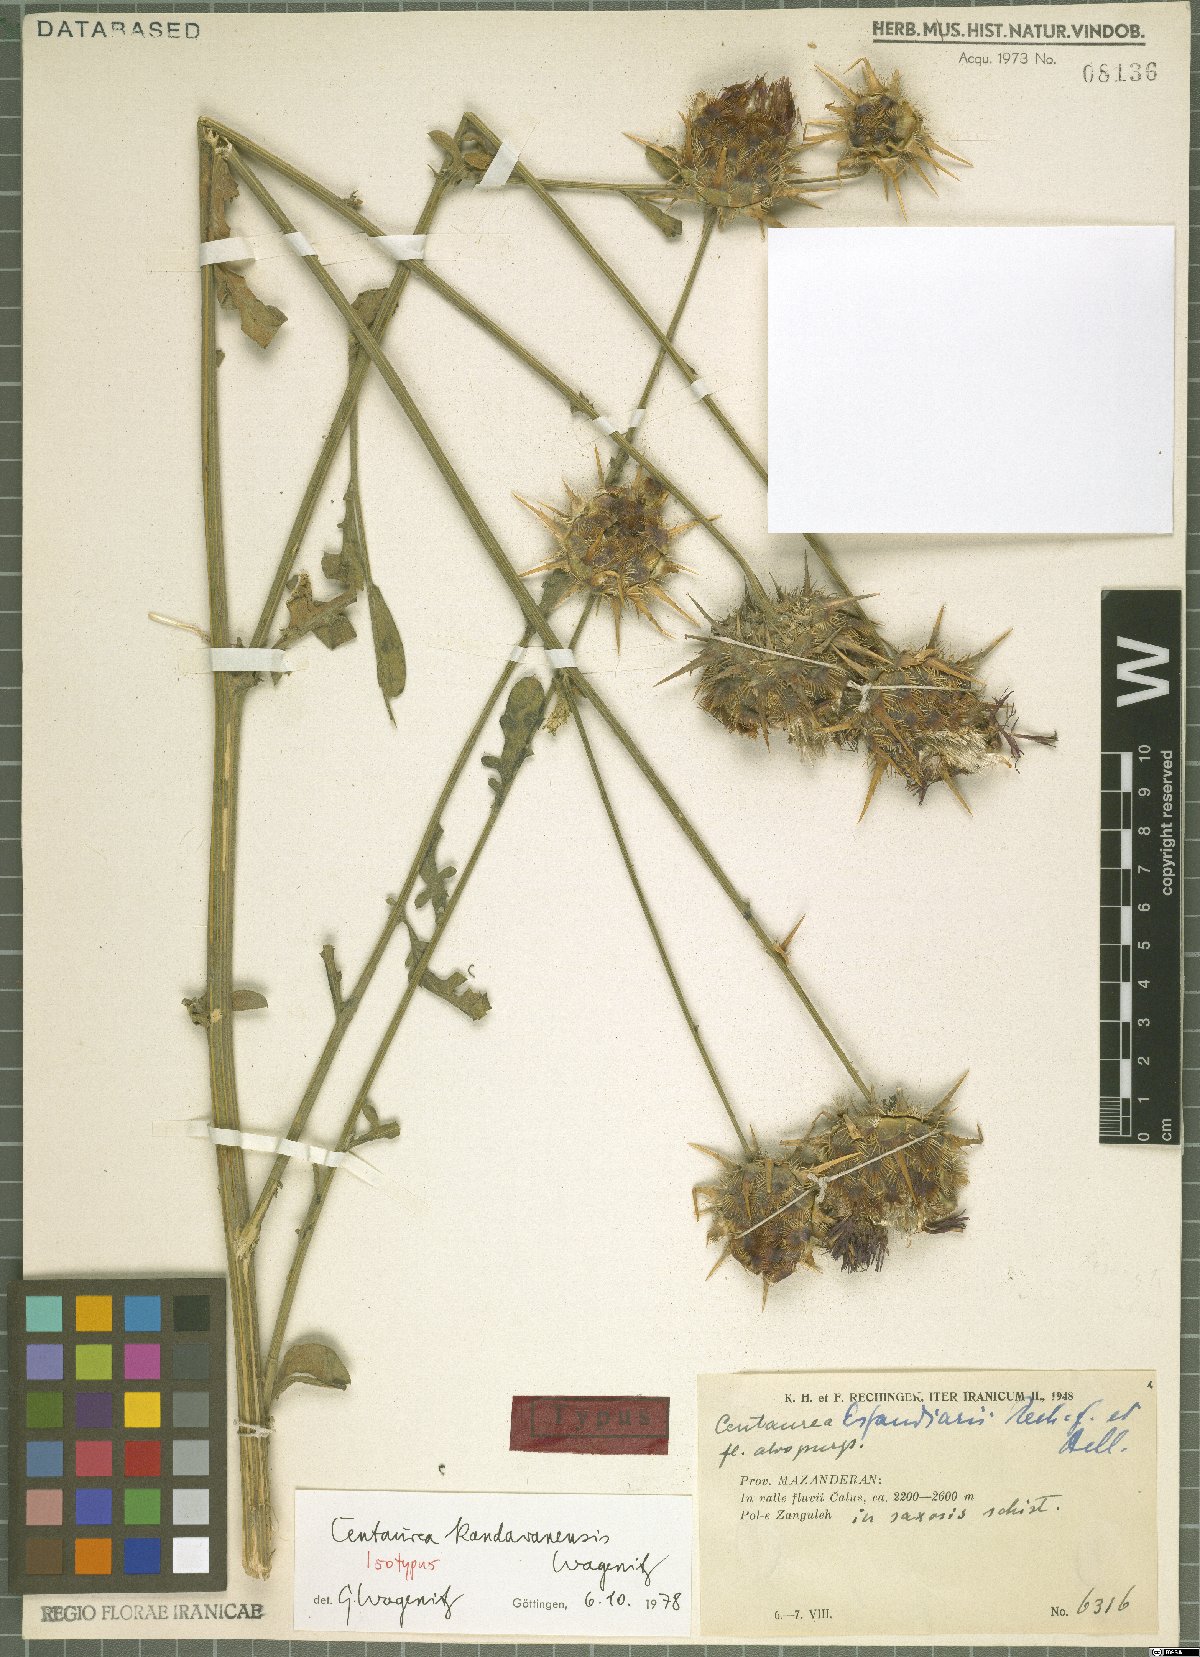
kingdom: Plantae
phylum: Tracheophyta
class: Magnoliopsida
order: Asterales
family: Asteraceae
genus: Centaurea
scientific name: Centaurea kandavanensis
